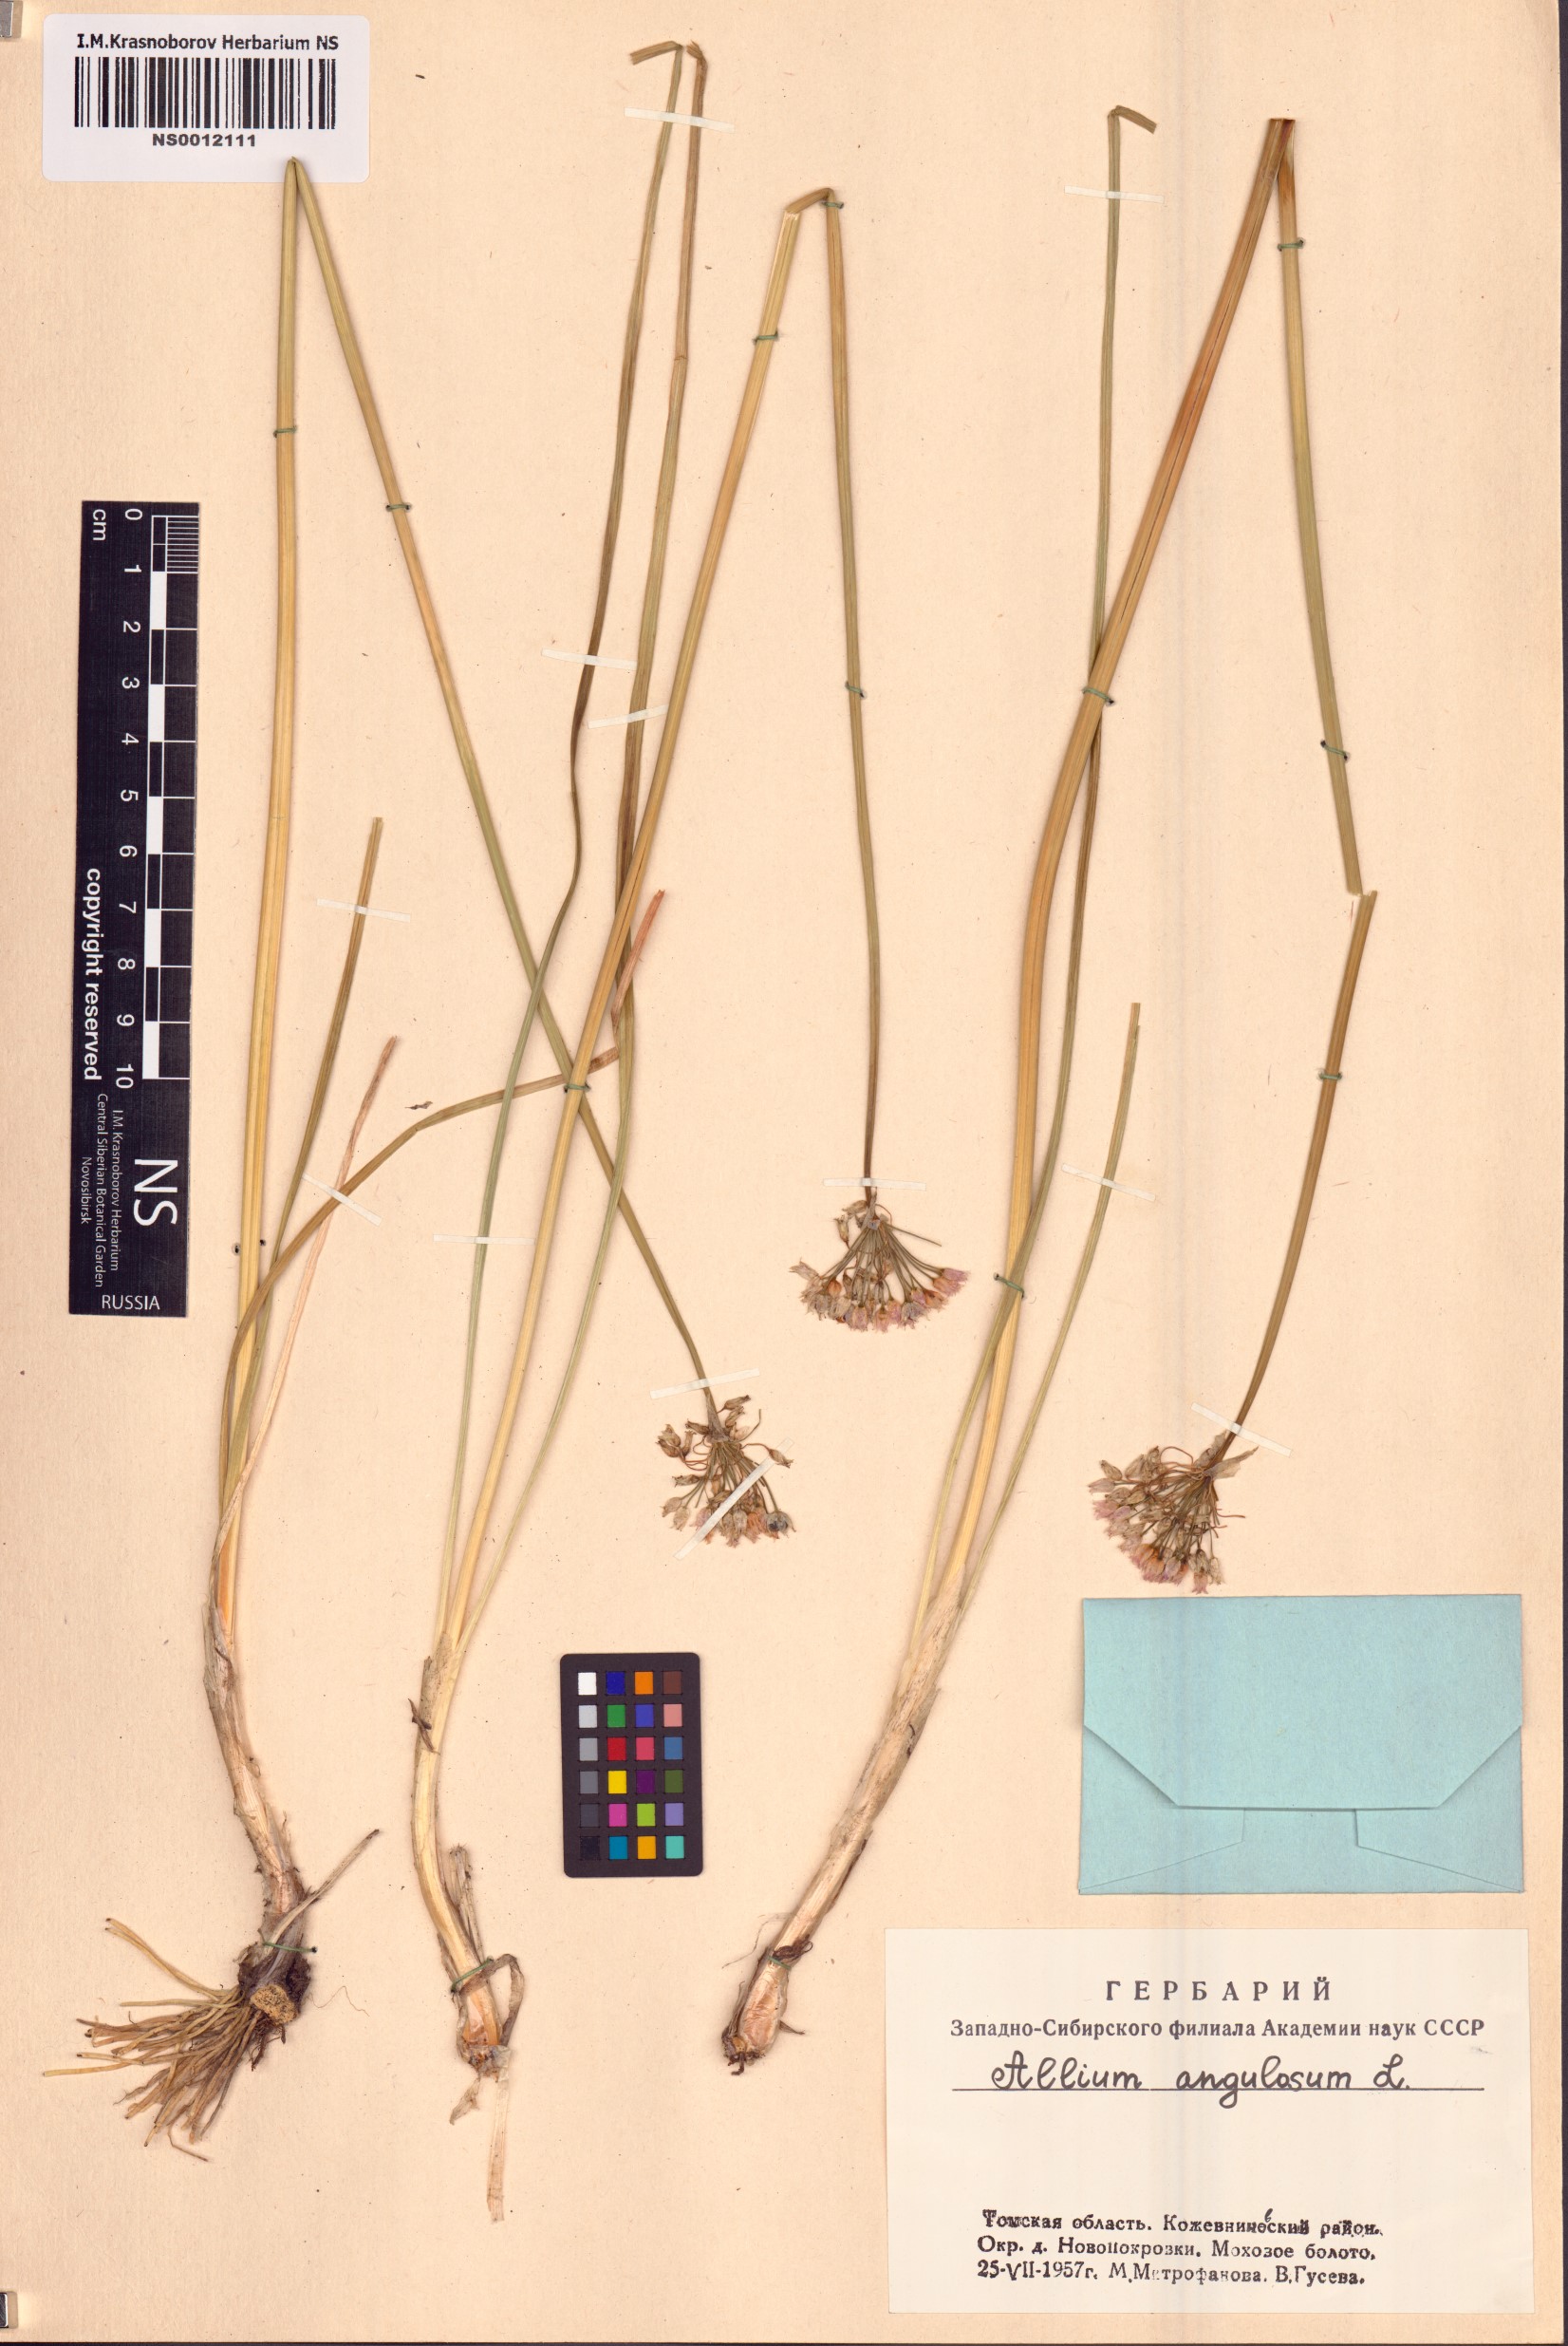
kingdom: Plantae
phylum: Tracheophyta
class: Liliopsida
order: Asparagales
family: Amaryllidaceae
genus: Allium
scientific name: Allium angulosum
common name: Mouse garlic
